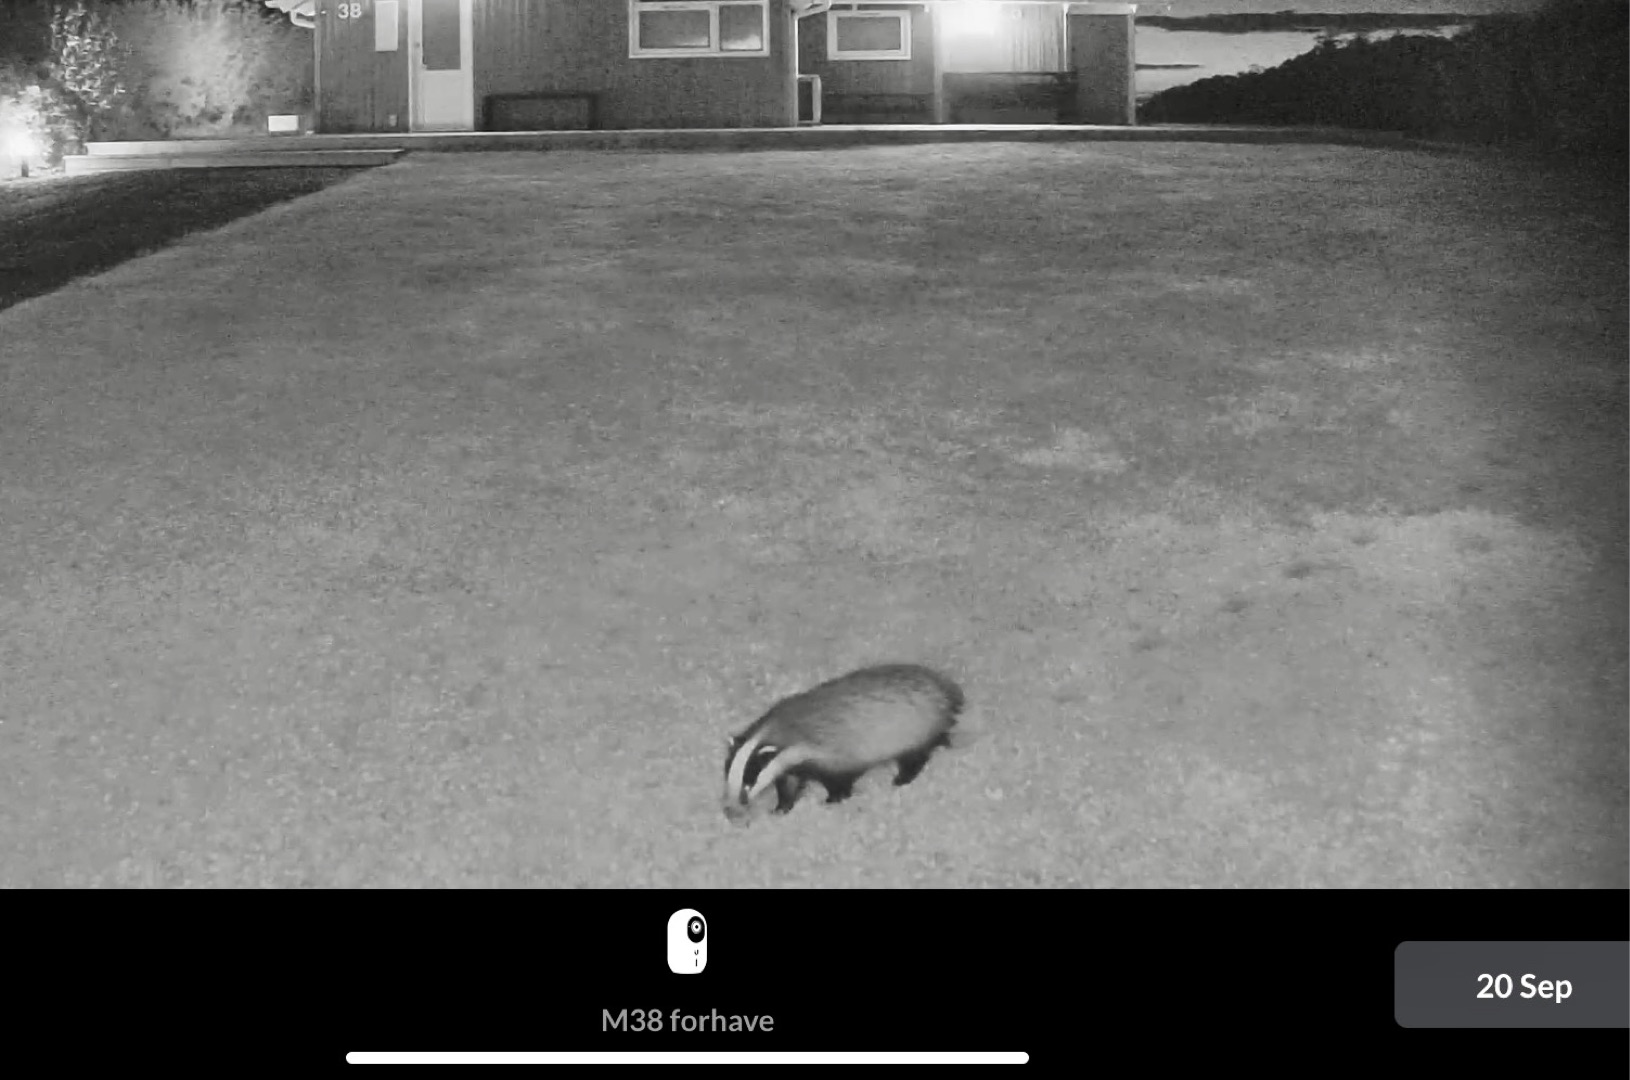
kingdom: Animalia
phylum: Chordata
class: Mammalia
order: Carnivora
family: Mustelidae
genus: Meles
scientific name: Meles meles
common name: Grævling
